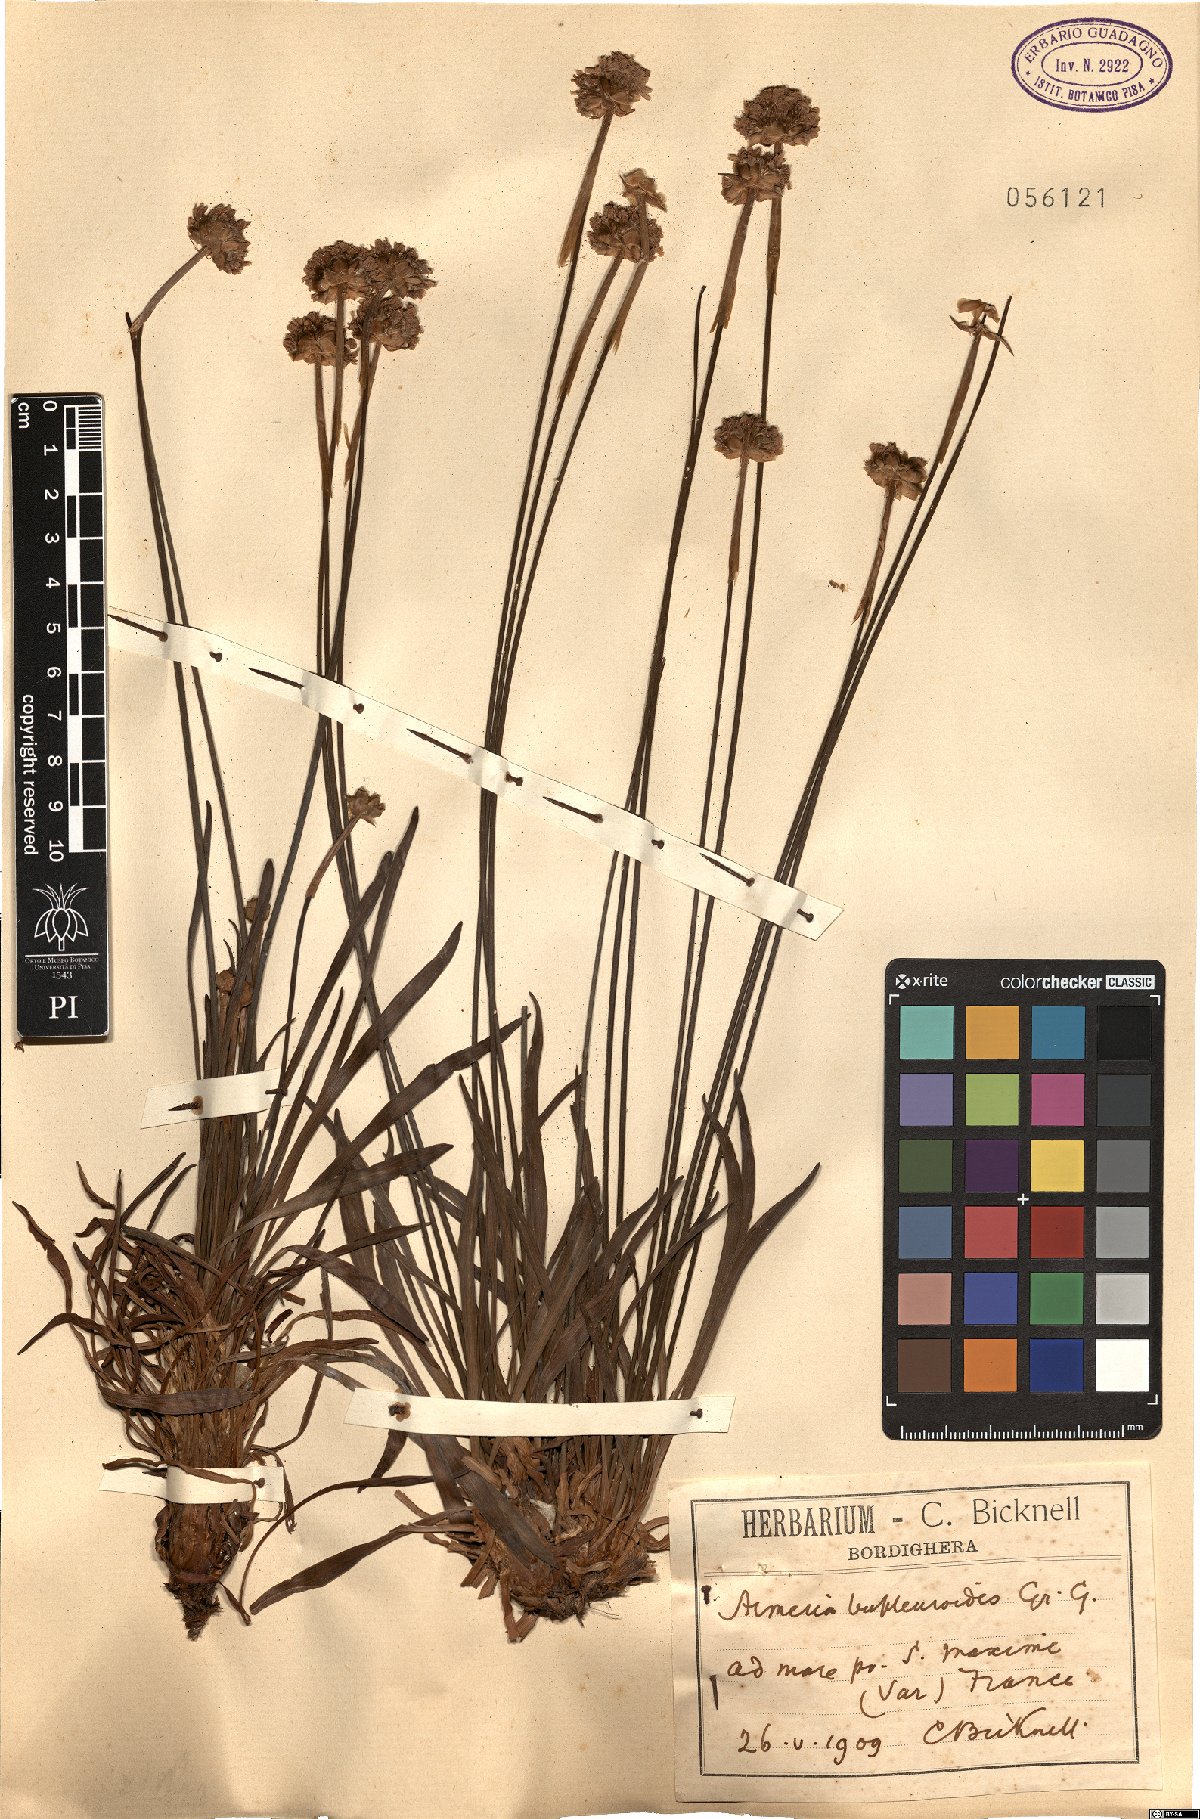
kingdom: Plantae
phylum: Tracheophyta
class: Magnoliopsida
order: Caryophyllales
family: Plumbaginaceae
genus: Armeria
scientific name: Armeria arenaria
